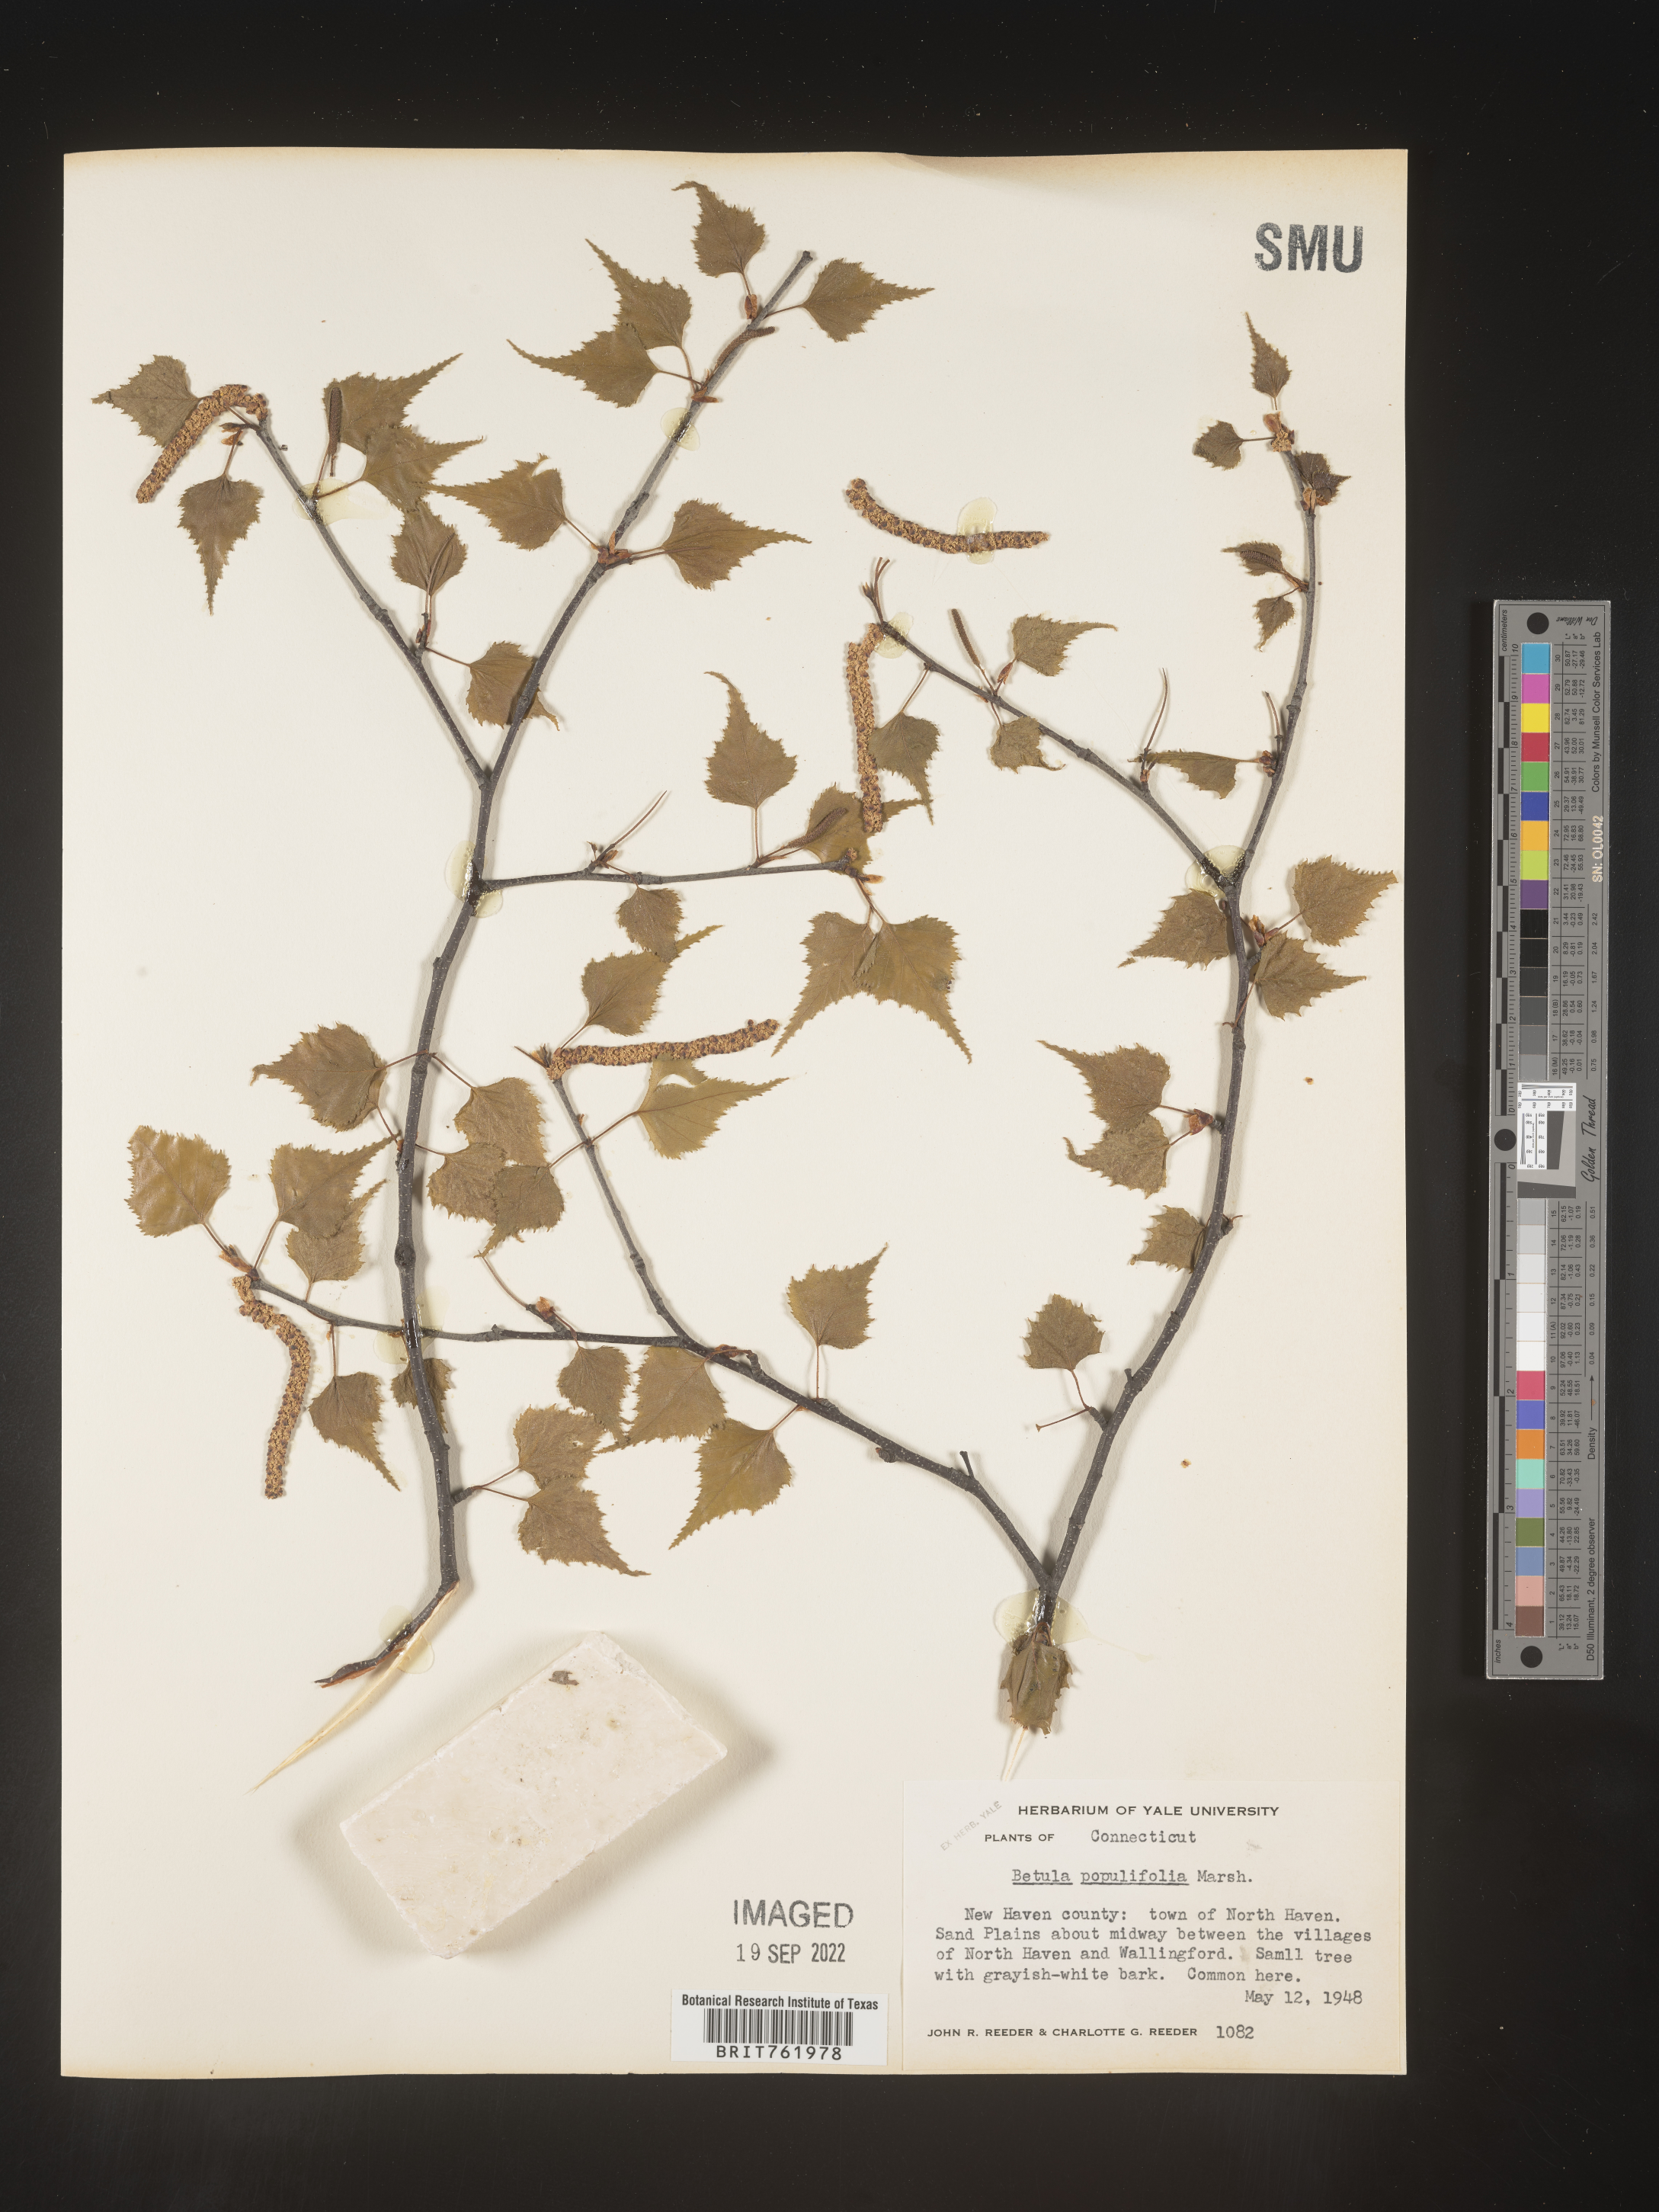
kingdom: Plantae
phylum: Tracheophyta
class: Magnoliopsida
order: Fagales
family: Betulaceae
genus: Betula
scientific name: Betula populifolia
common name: Fire birch
